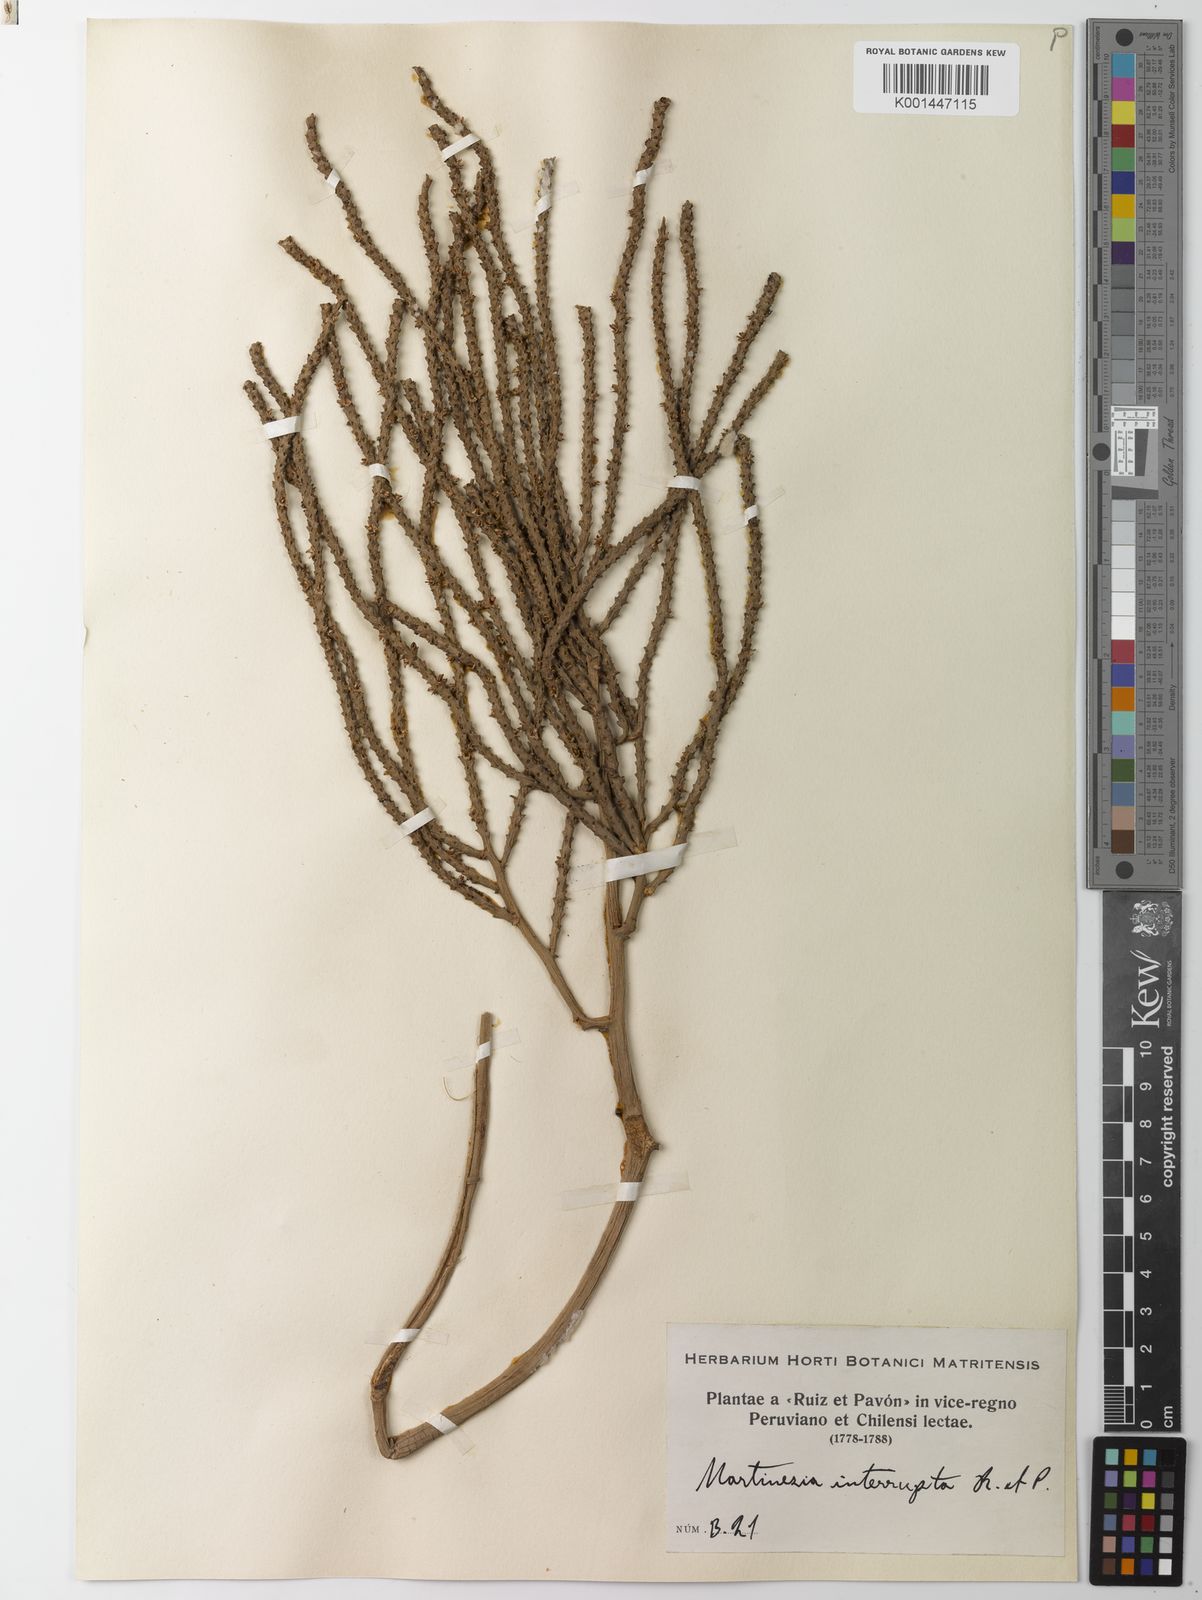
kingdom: Plantae
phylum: Tracheophyta
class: Liliopsida
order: Arecales
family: Arecaceae
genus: Geonoma
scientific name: Geonoma interrupta
